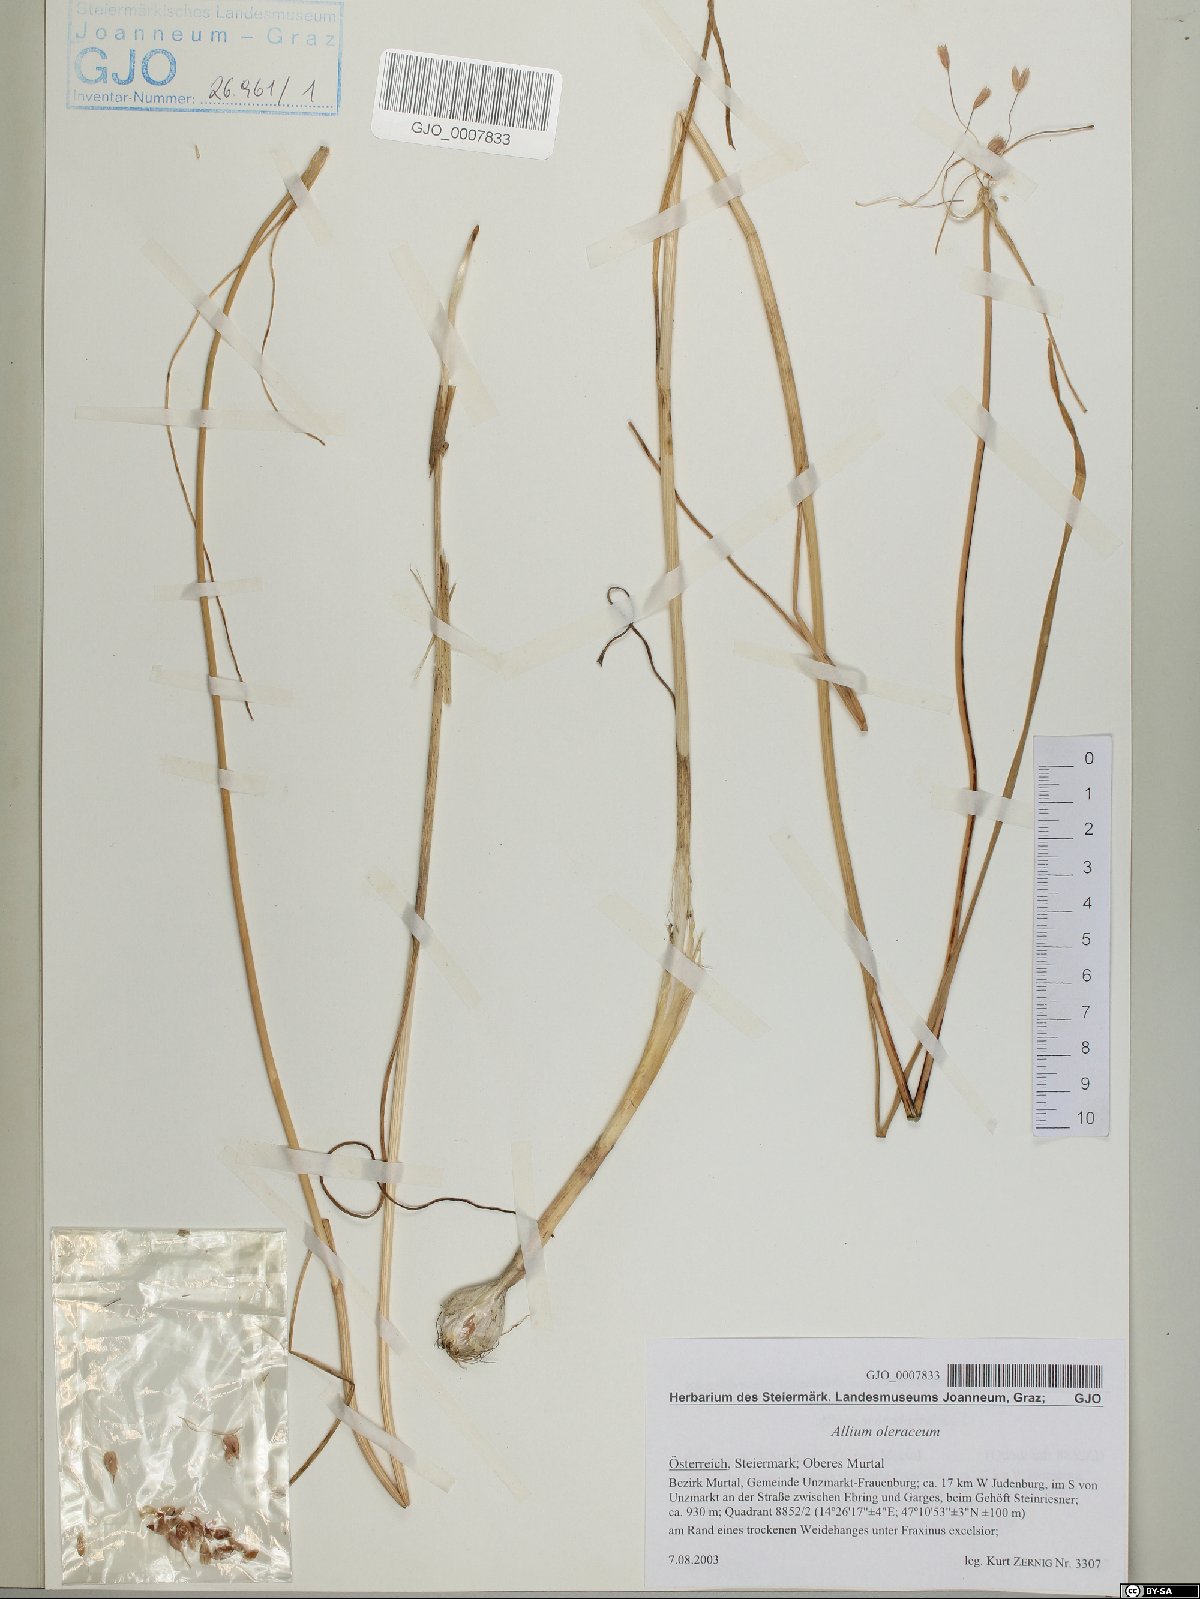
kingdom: Plantae
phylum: Tracheophyta
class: Liliopsida
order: Asparagales
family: Amaryllidaceae
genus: Allium
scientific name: Allium oleraceum
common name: Field garlic
